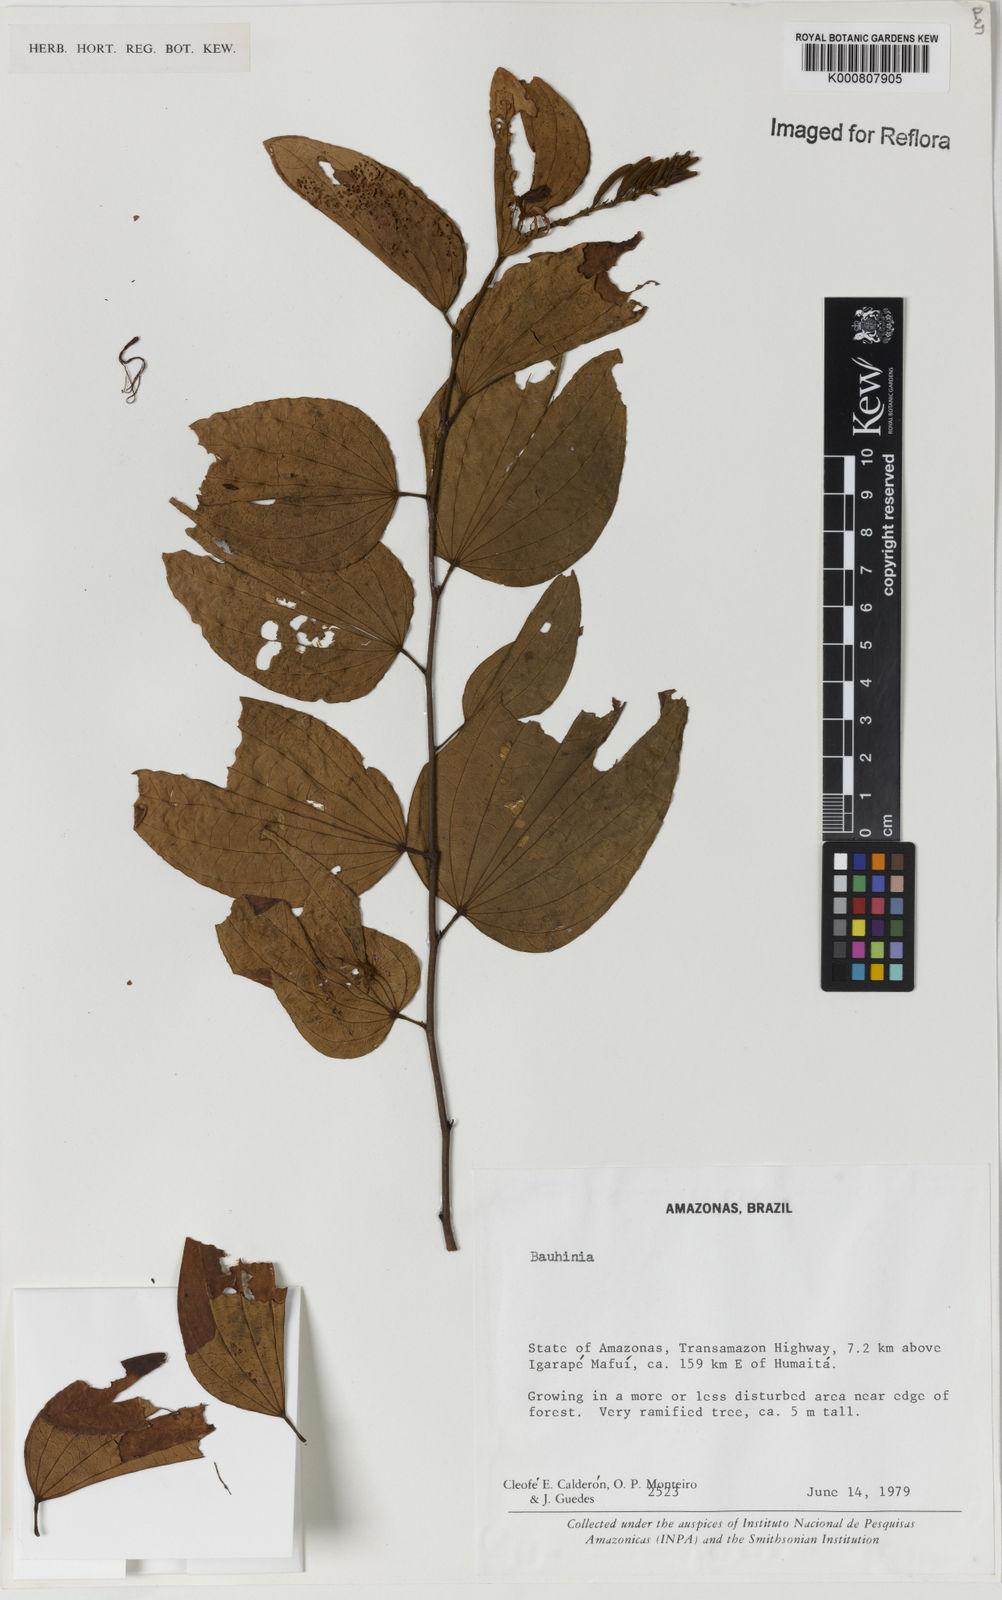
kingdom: Plantae
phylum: Tracheophyta
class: Magnoliopsida
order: Fabales
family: Fabaceae
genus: Bauhinia
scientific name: Bauhinia
